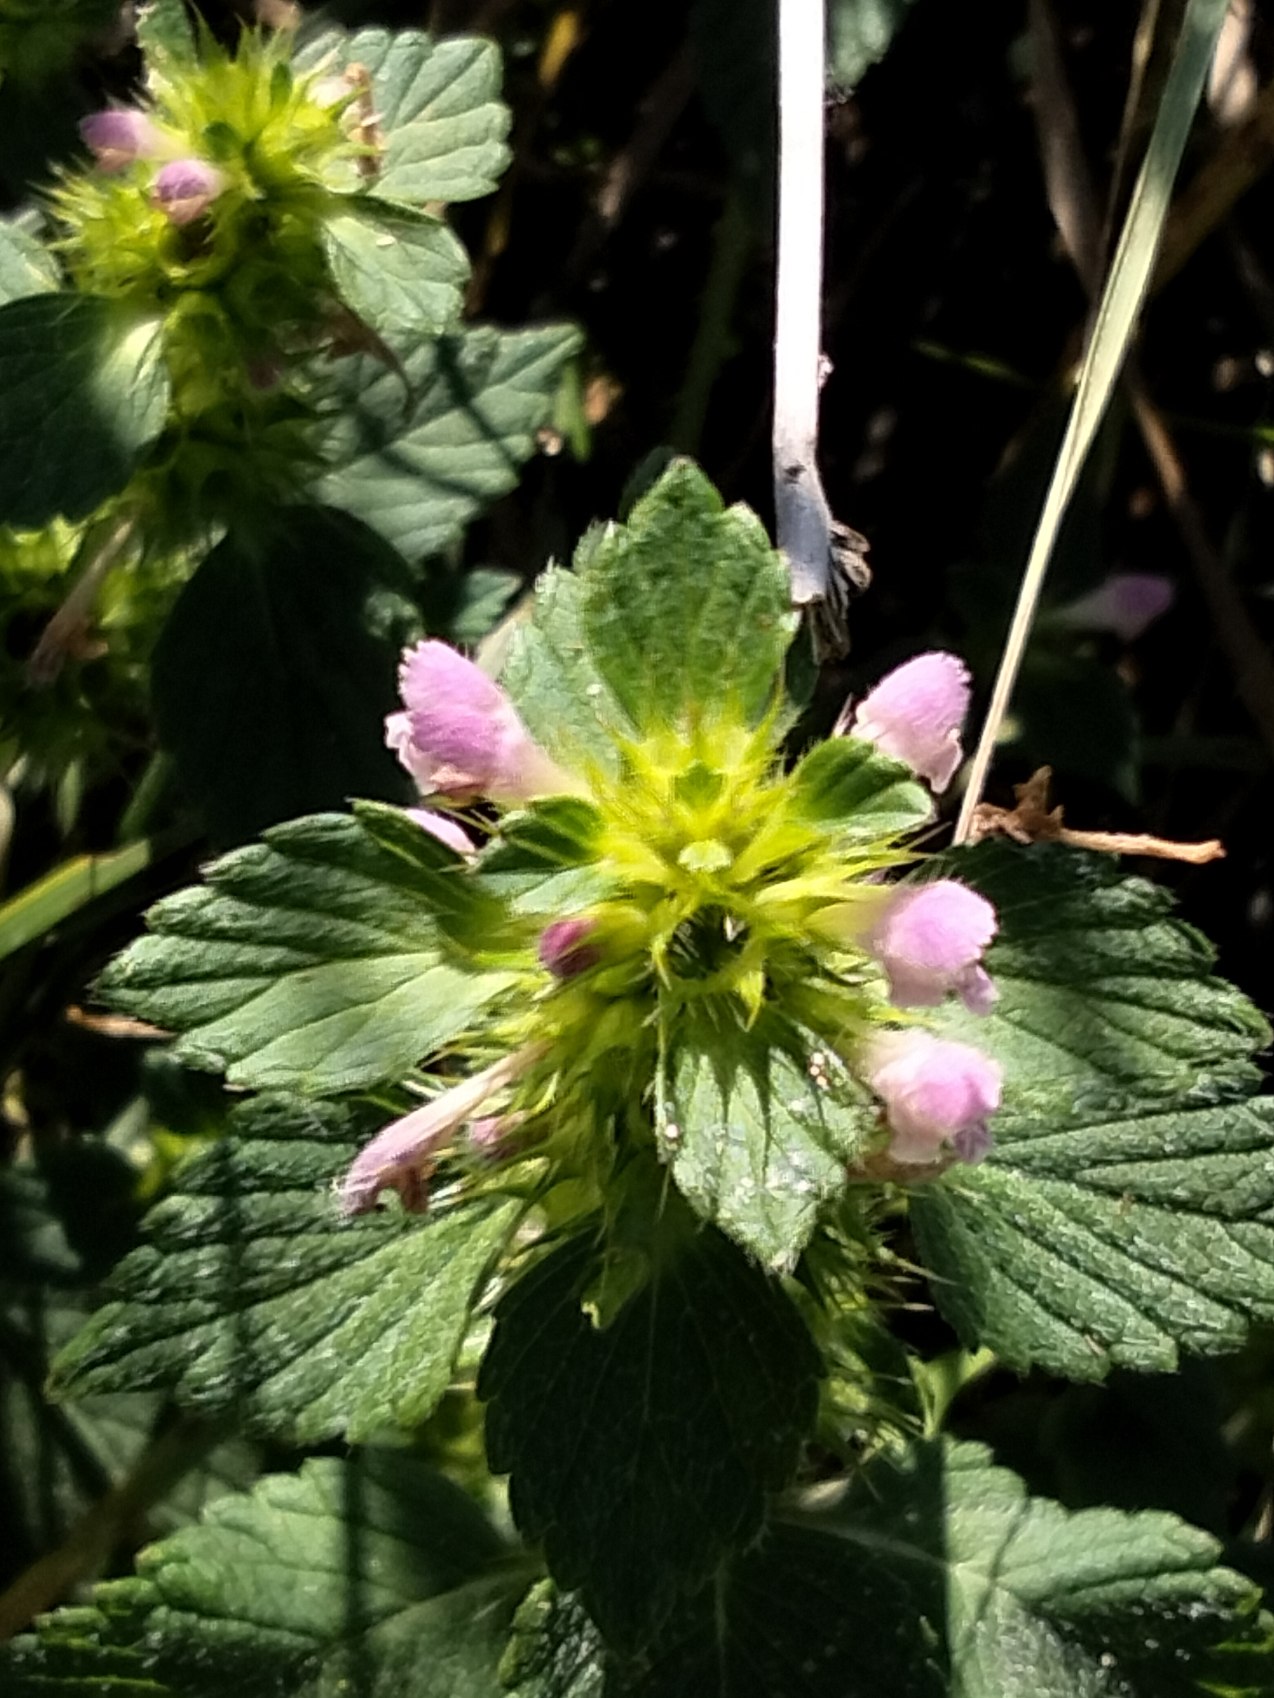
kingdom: Plantae
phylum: Tracheophyta
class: Magnoliopsida
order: Lamiales
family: Lamiaceae
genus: Galeopsis
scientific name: Galeopsis bifida
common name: Skov-hanekro
